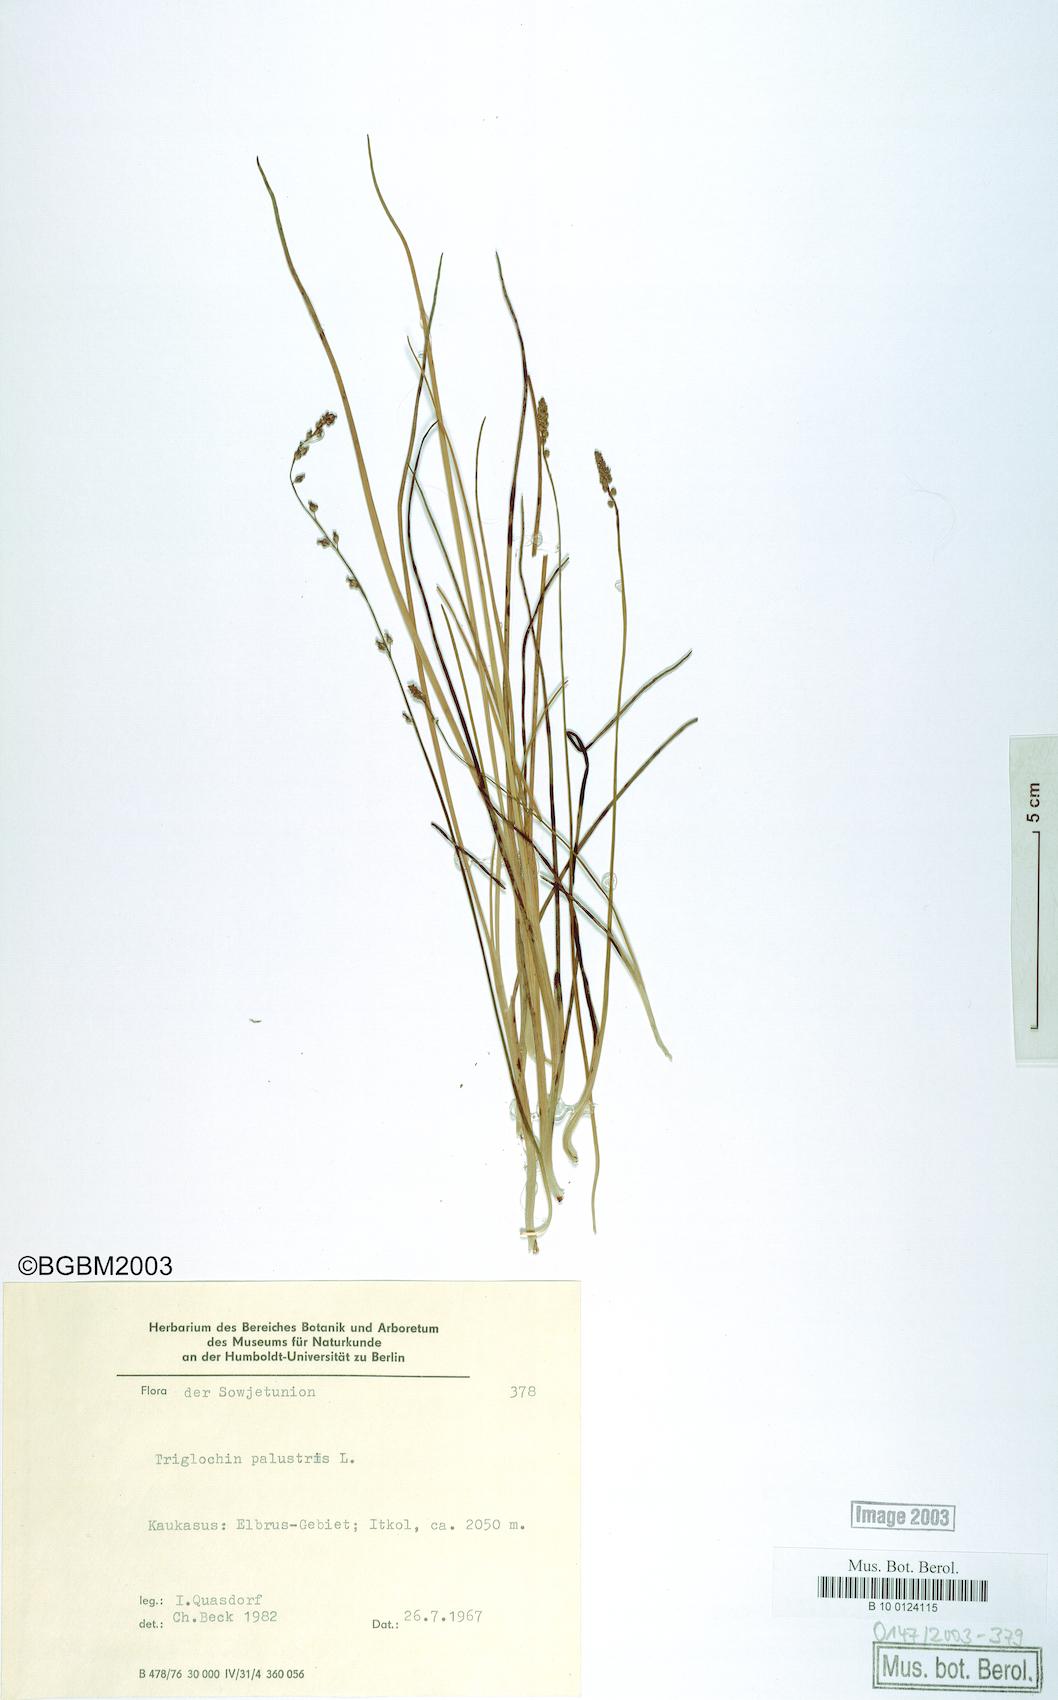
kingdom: Plantae
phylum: Tracheophyta
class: Liliopsida
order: Alismatales
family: Juncaginaceae
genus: Triglochin
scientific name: Triglochin palustris
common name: Marsh arrowgrass
